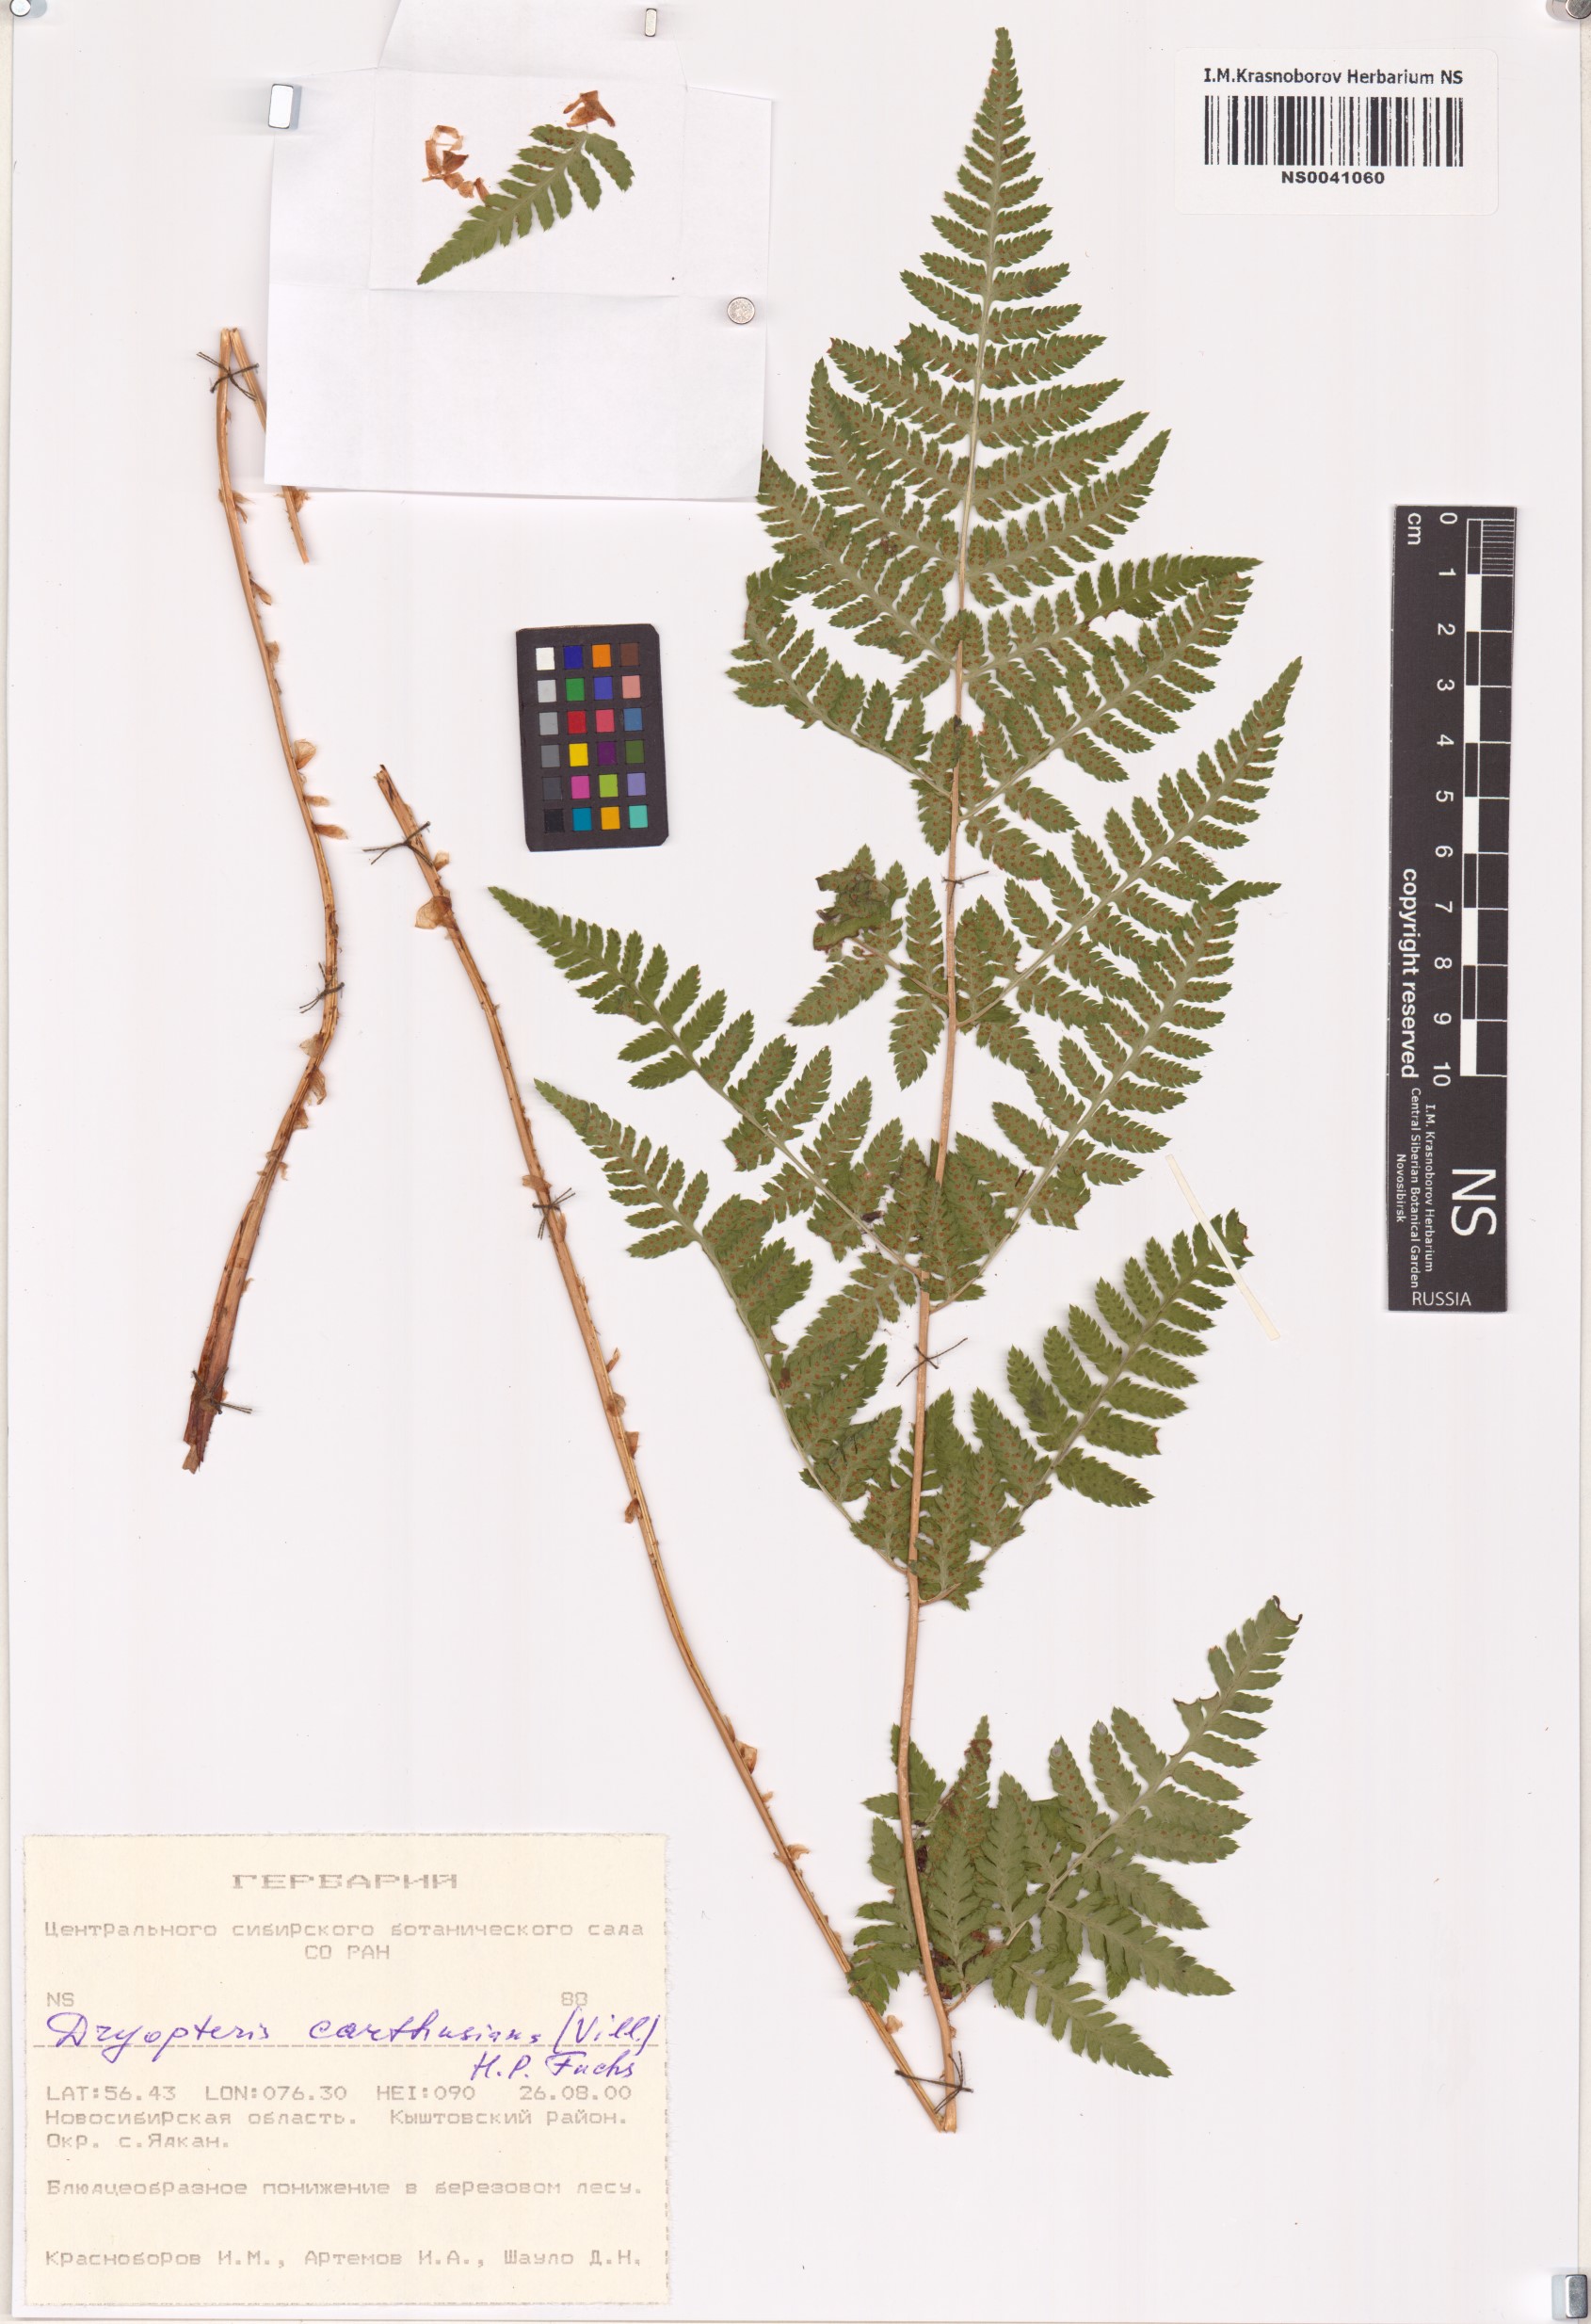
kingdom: Plantae
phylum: Tracheophyta
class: Polypodiopsida
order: Polypodiales
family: Dryopteridaceae
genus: Dryopteris
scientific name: Dryopteris carthusiana
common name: Narrow buckler-fern
